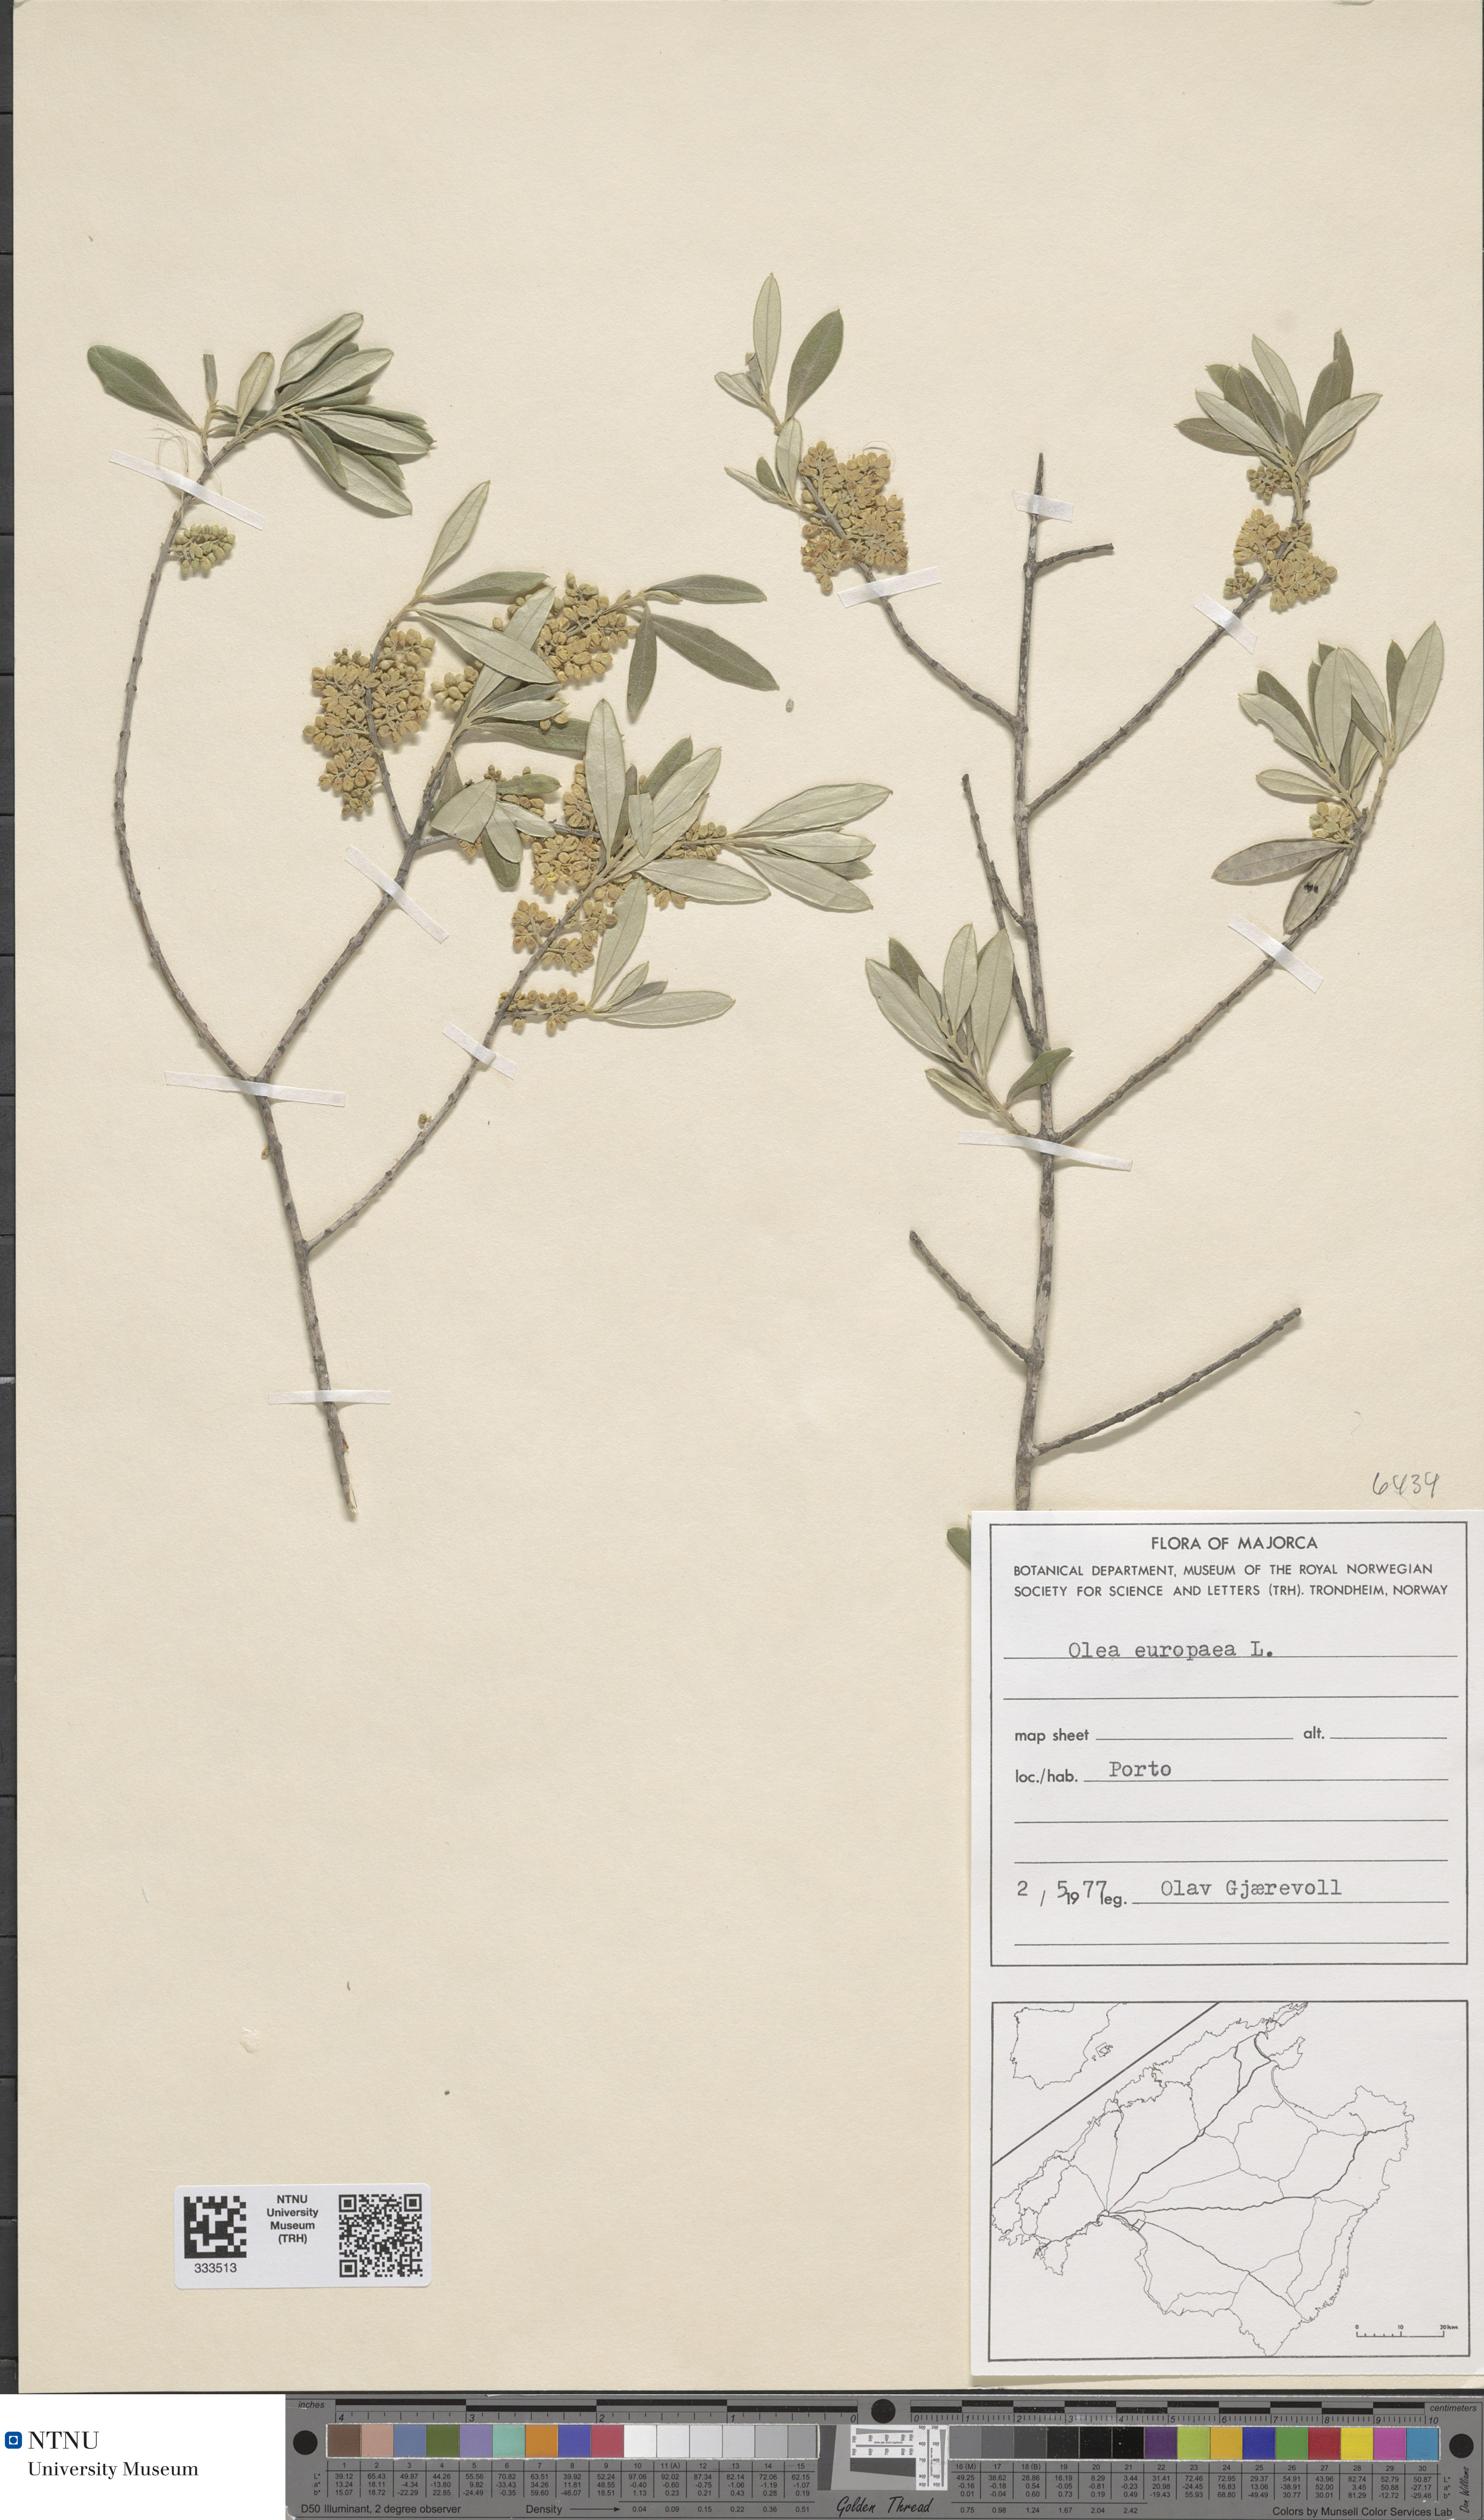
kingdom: Plantae
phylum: Tracheophyta
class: Magnoliopsida
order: Lamiales
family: Oleaceae
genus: Olea
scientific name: Olea europaea
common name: Olive
